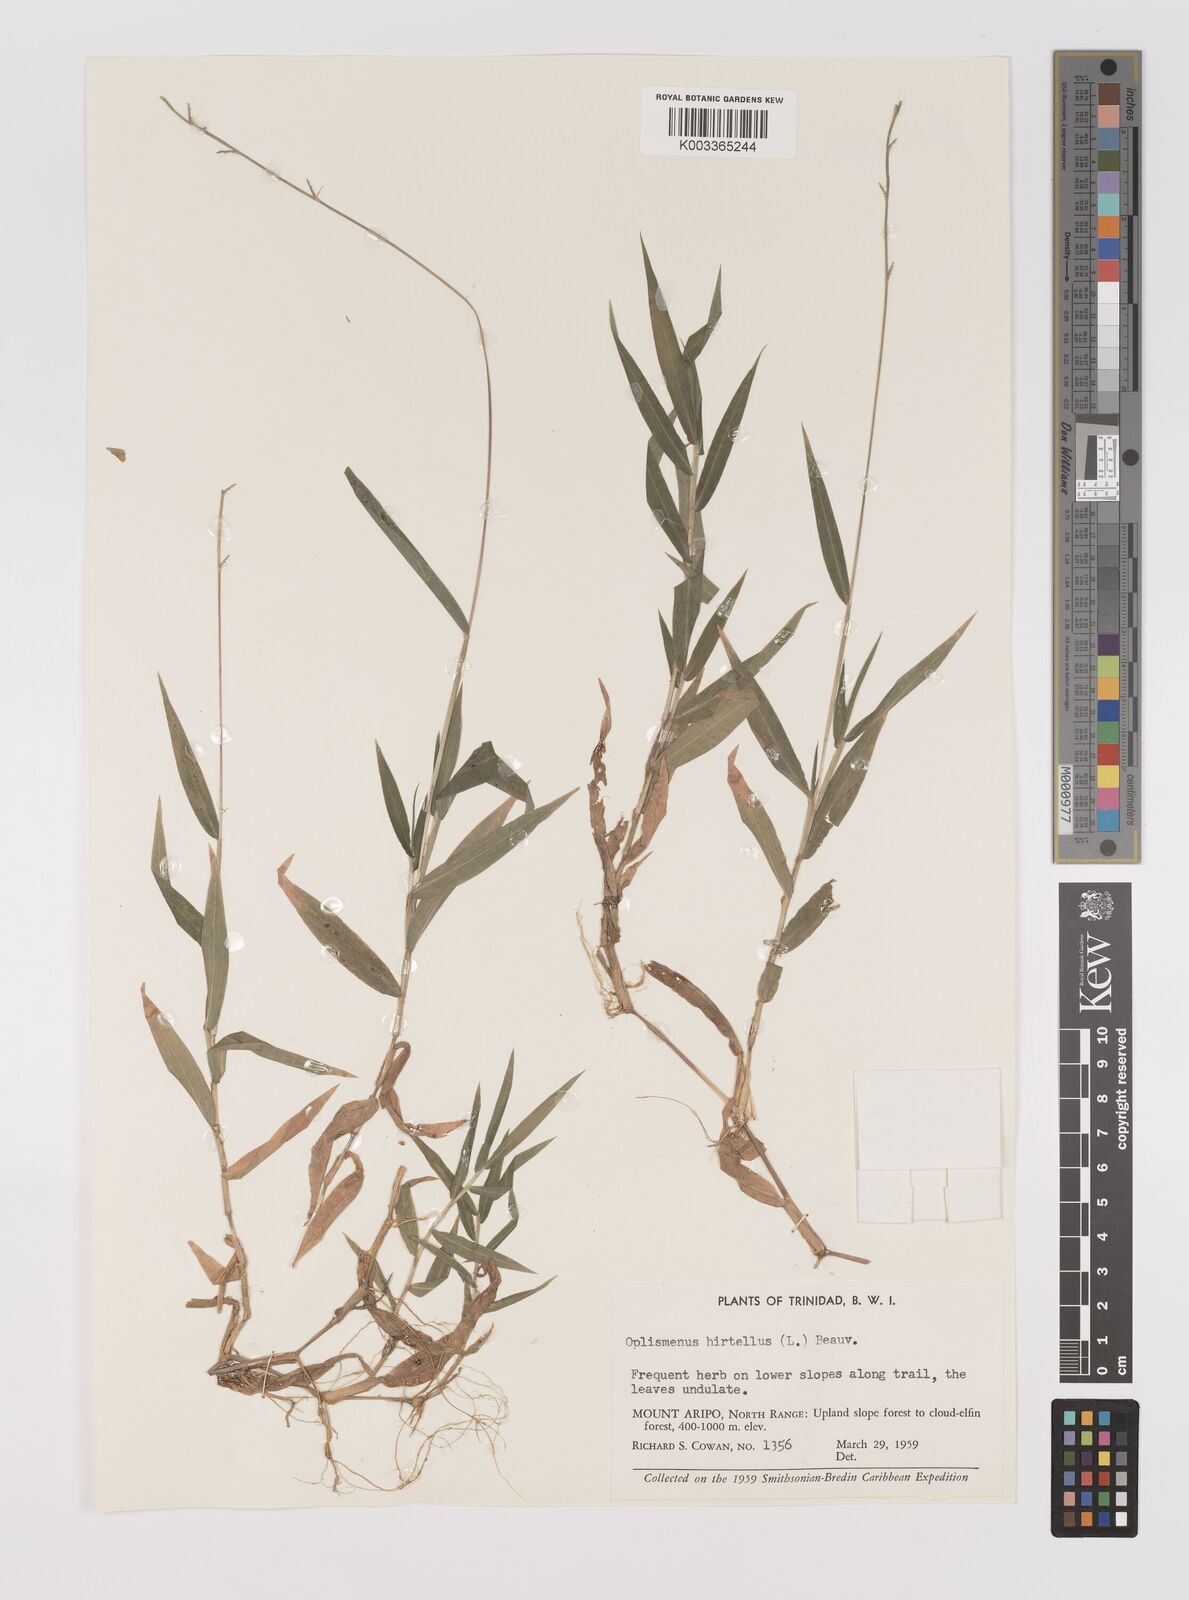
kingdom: Plantae
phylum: Tracheophyta
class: Liliopsida
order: Poales
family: Poaceae
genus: Oplismenus
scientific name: Oplismenus hirtellus
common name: Basketgrass
